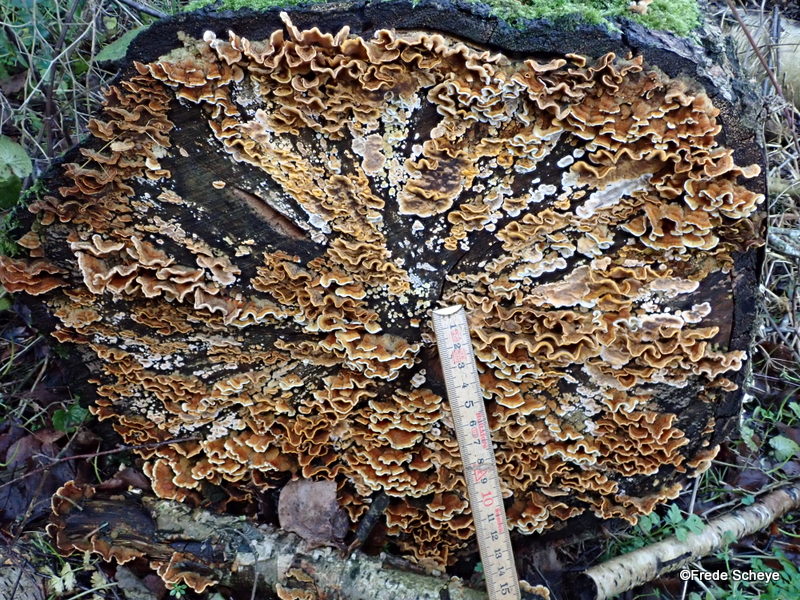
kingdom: Fungi
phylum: Basidiomycota
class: Agaricomycetes
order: Russulales
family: Stereaceae
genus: Stereum
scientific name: Stereum hirsutum
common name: håret lædersvamp
